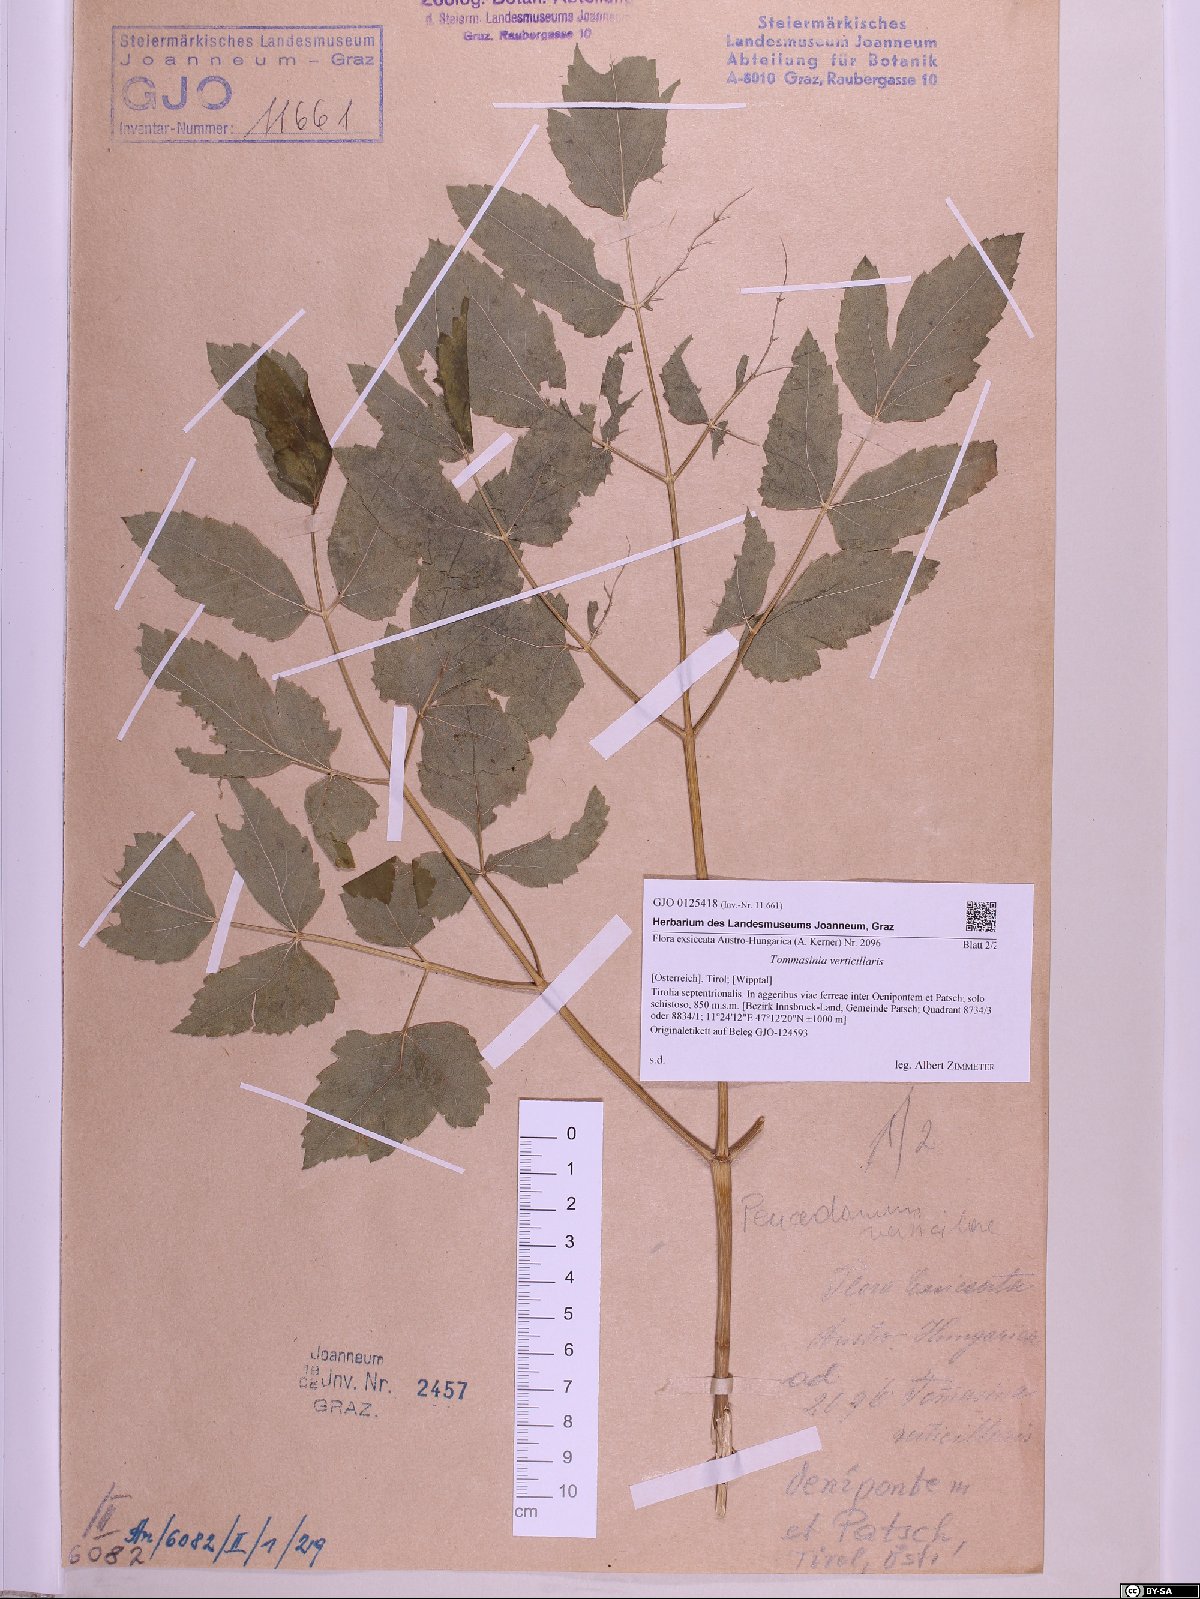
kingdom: Plantae
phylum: Tracheophyta
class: Magnoliopsida
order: Apiales
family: Apiaceae
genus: Tommasinia
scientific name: Tommasinia altissima
